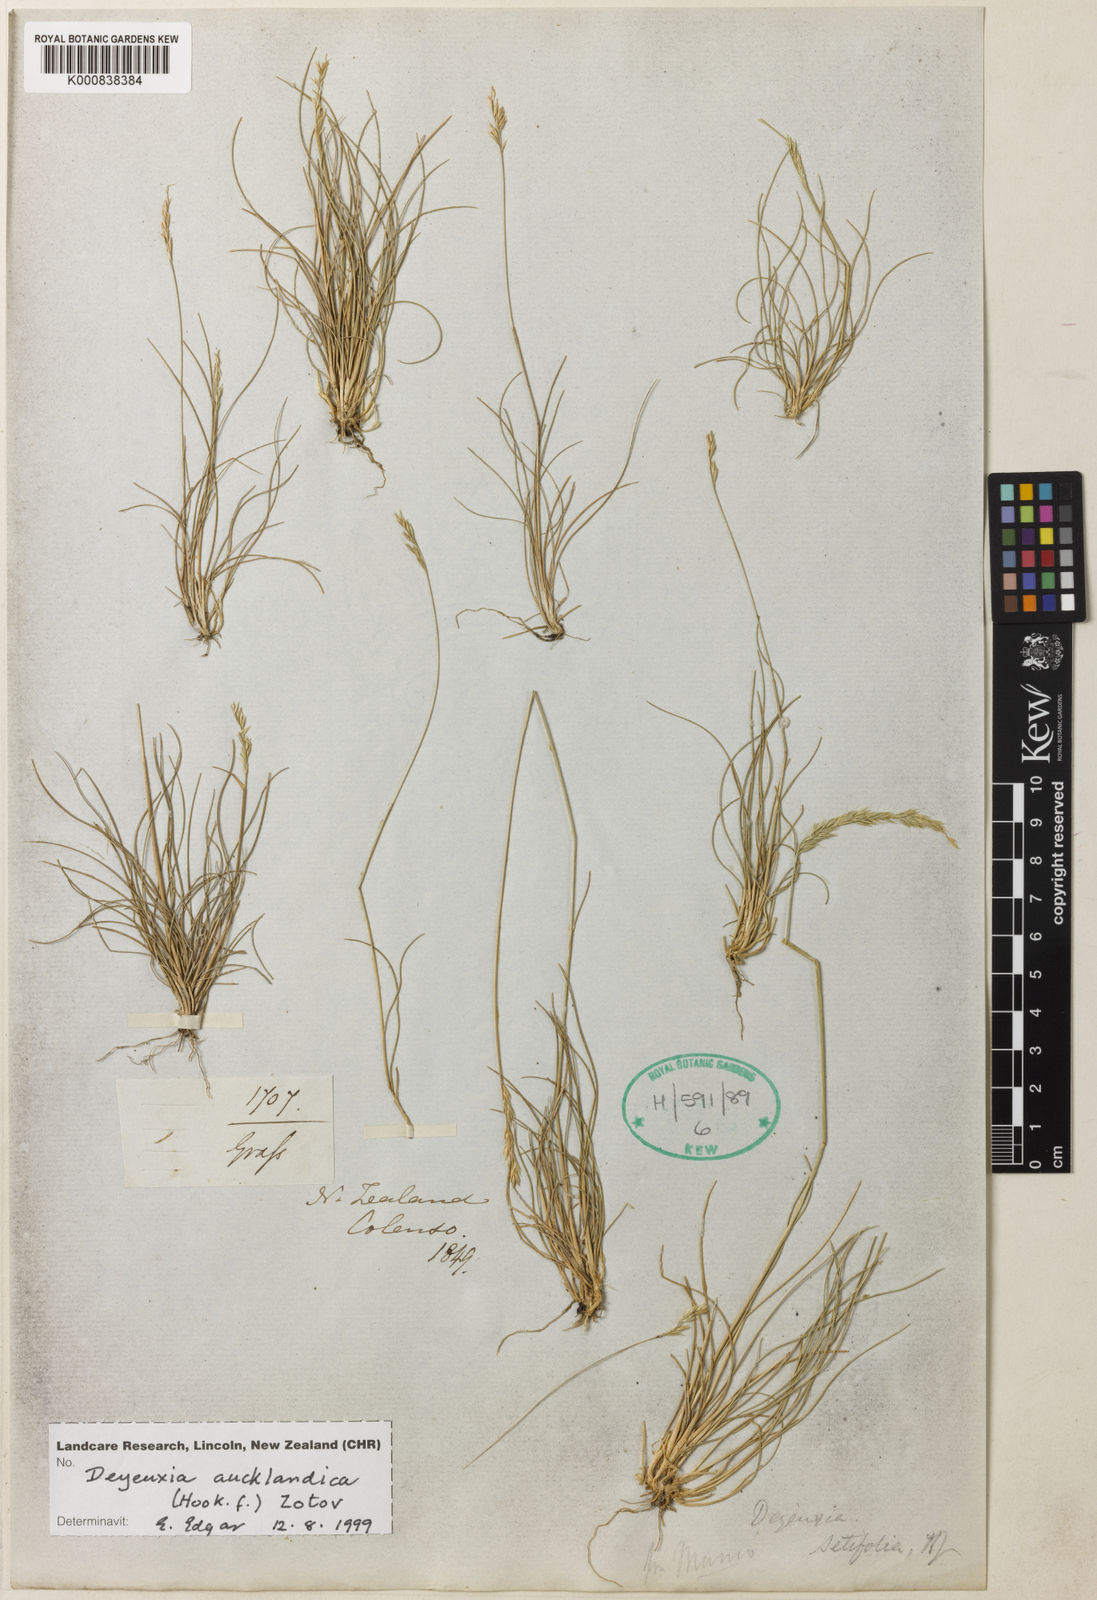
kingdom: Plantae
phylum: Tracheophyta
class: Liliopsida
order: Poales
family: Poaceae
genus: Agrostis
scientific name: Agrostis aucklandica
